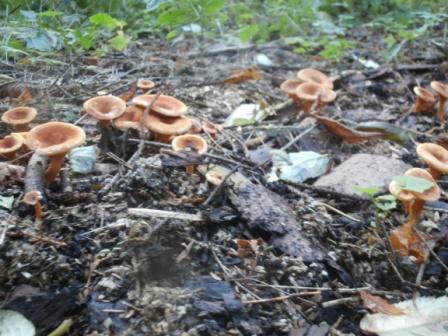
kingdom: Fungi
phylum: Basidiomycota
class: Agaricomycetes
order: Boletales
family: Hygrophoropsidaceae
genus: Hygrophoropsis
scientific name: Hygrophoropsis aurantiaca
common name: almindelig orangekantarel
